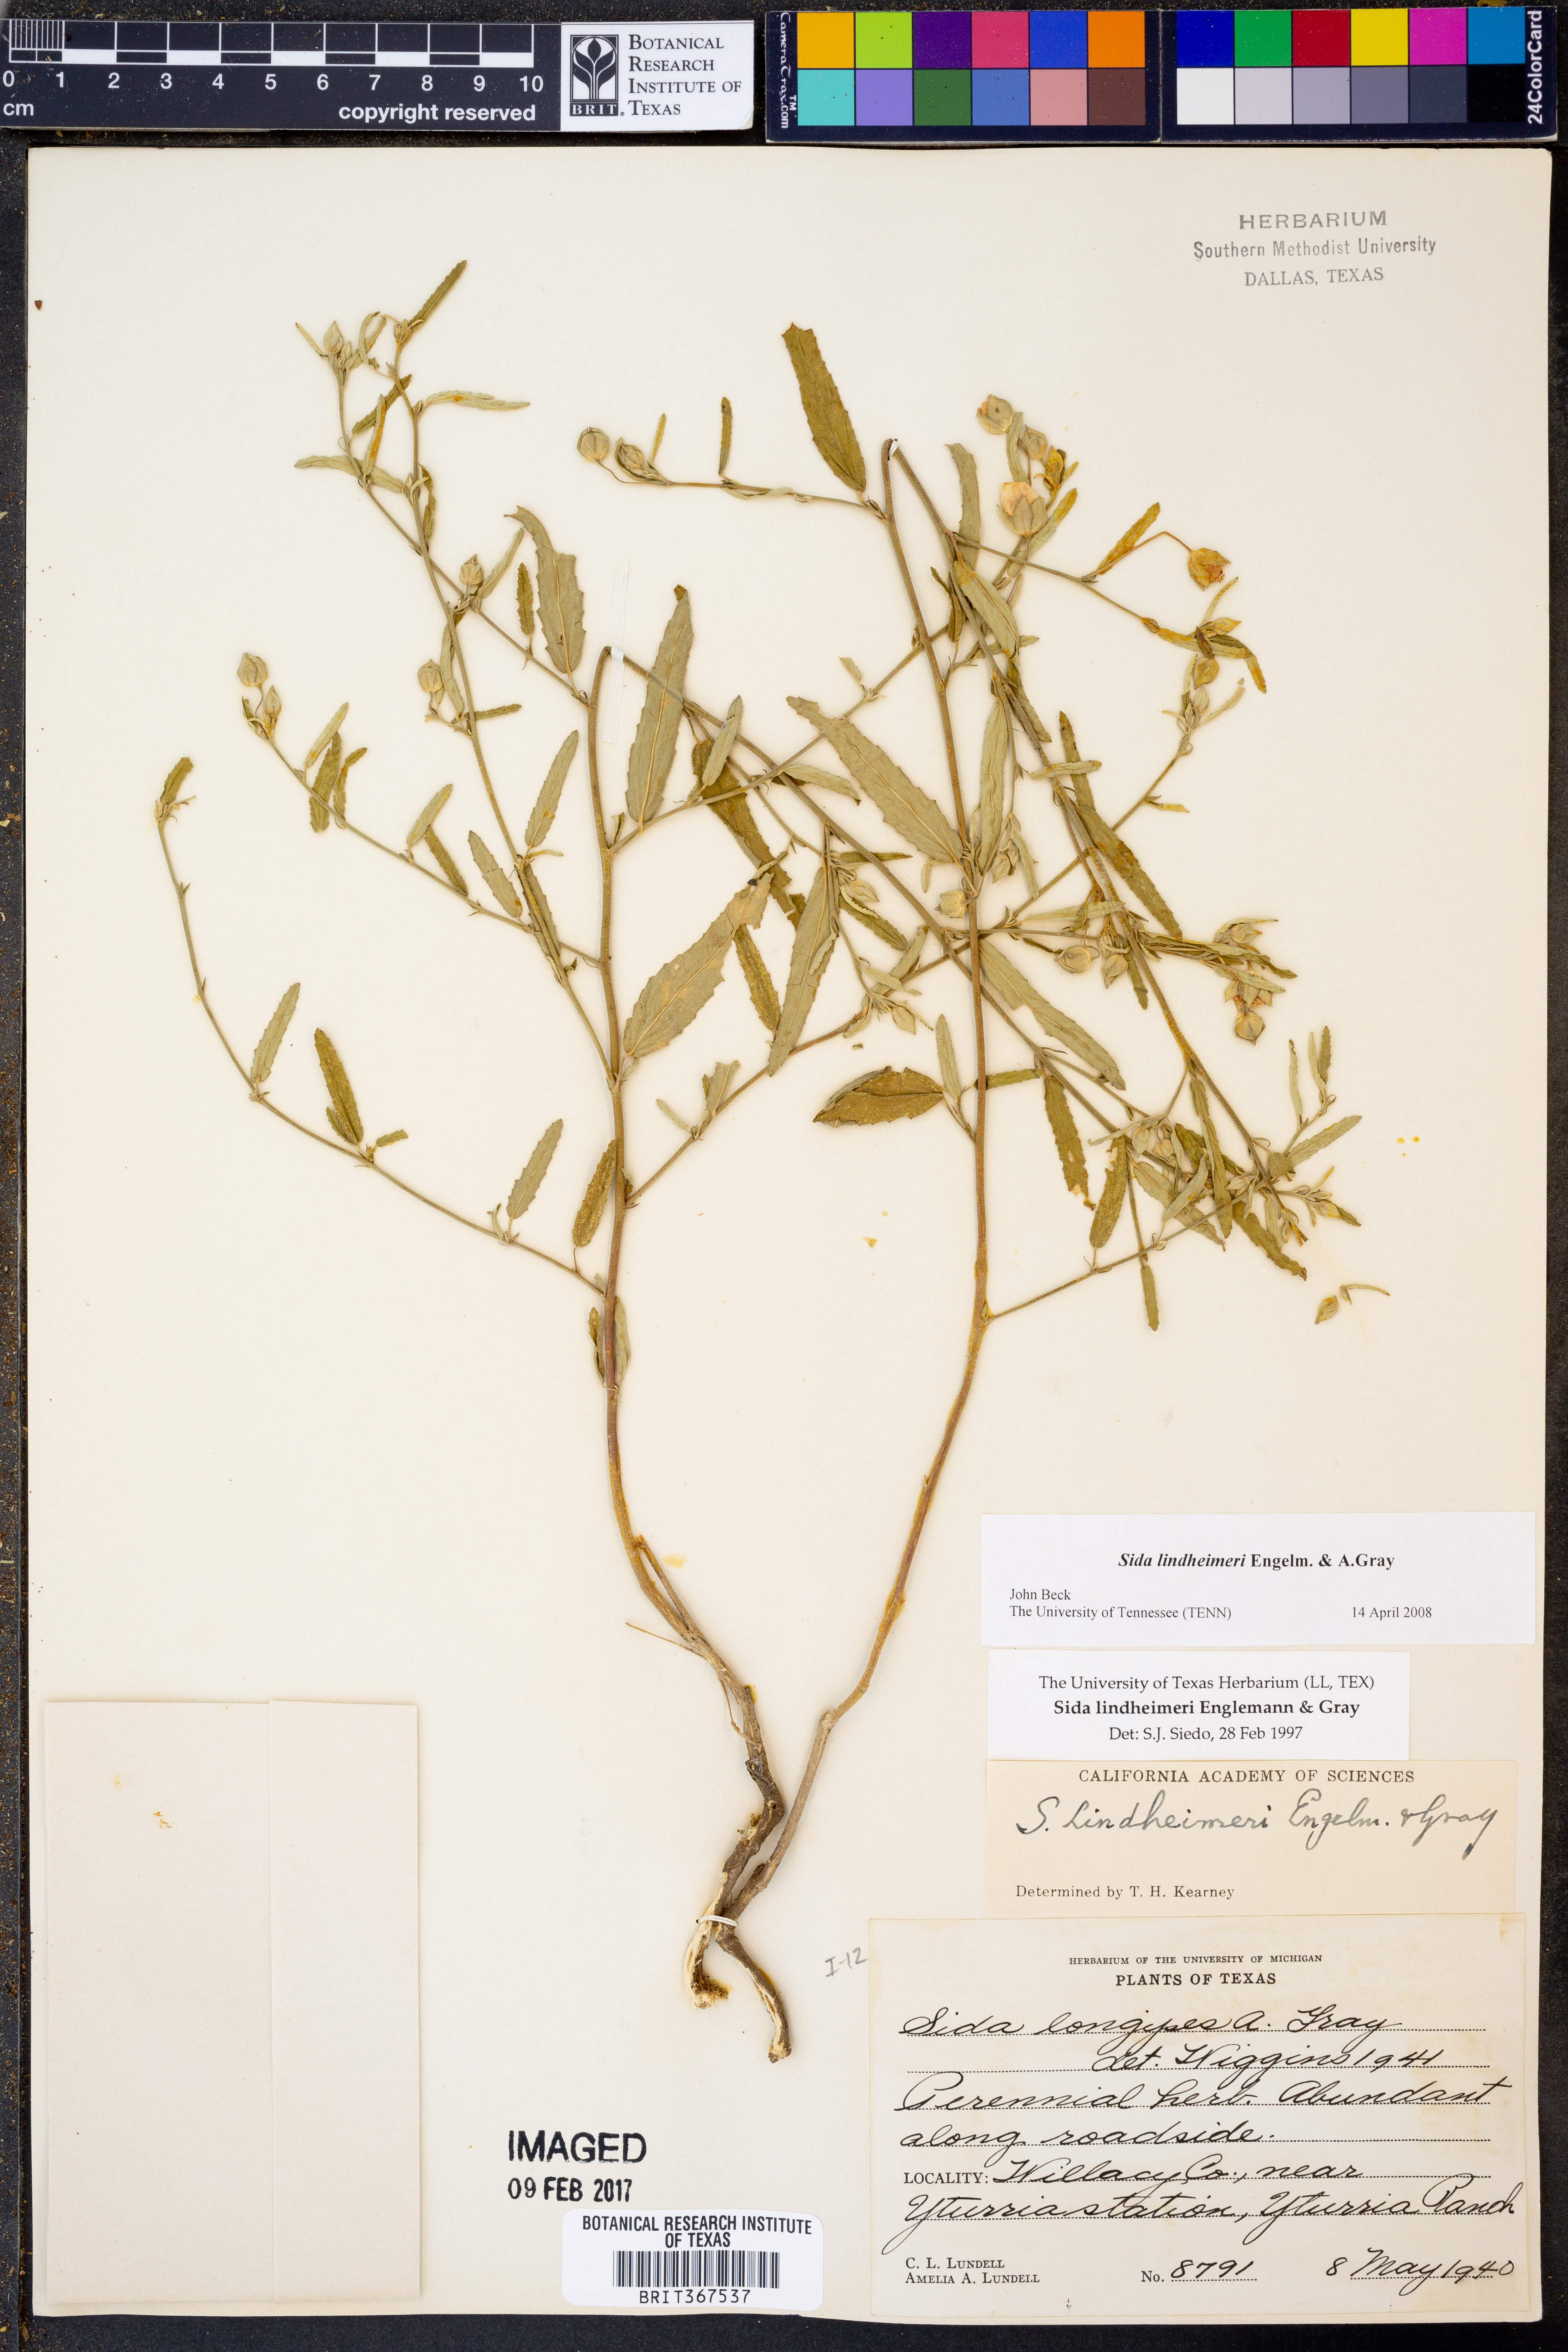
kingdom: Plantae
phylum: Tracheophyta
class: Magnoliopsida
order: Malvales
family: Malvaceae
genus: Sida
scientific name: Sida lindheimeri
